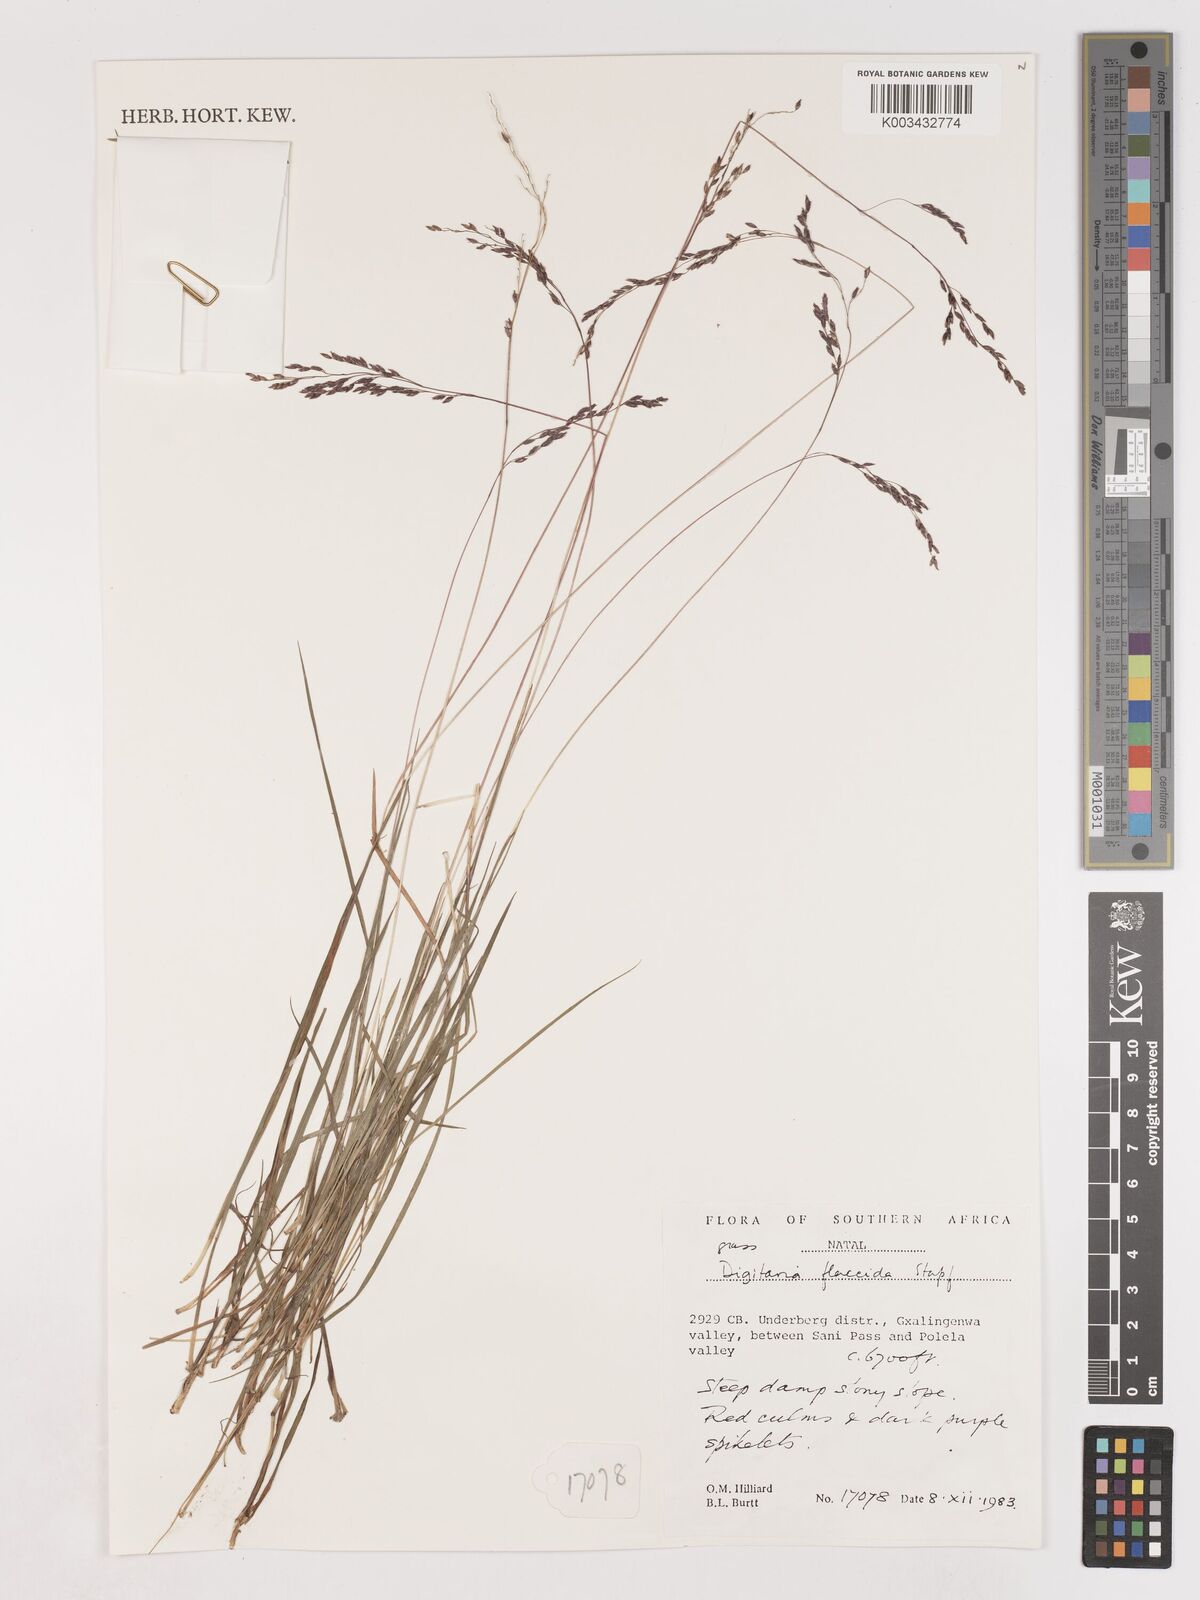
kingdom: Plantae
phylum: Tracheophyta
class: Liliopsida
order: Poales
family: Poaceae
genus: Digitaria
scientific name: Digitaria flaccida
